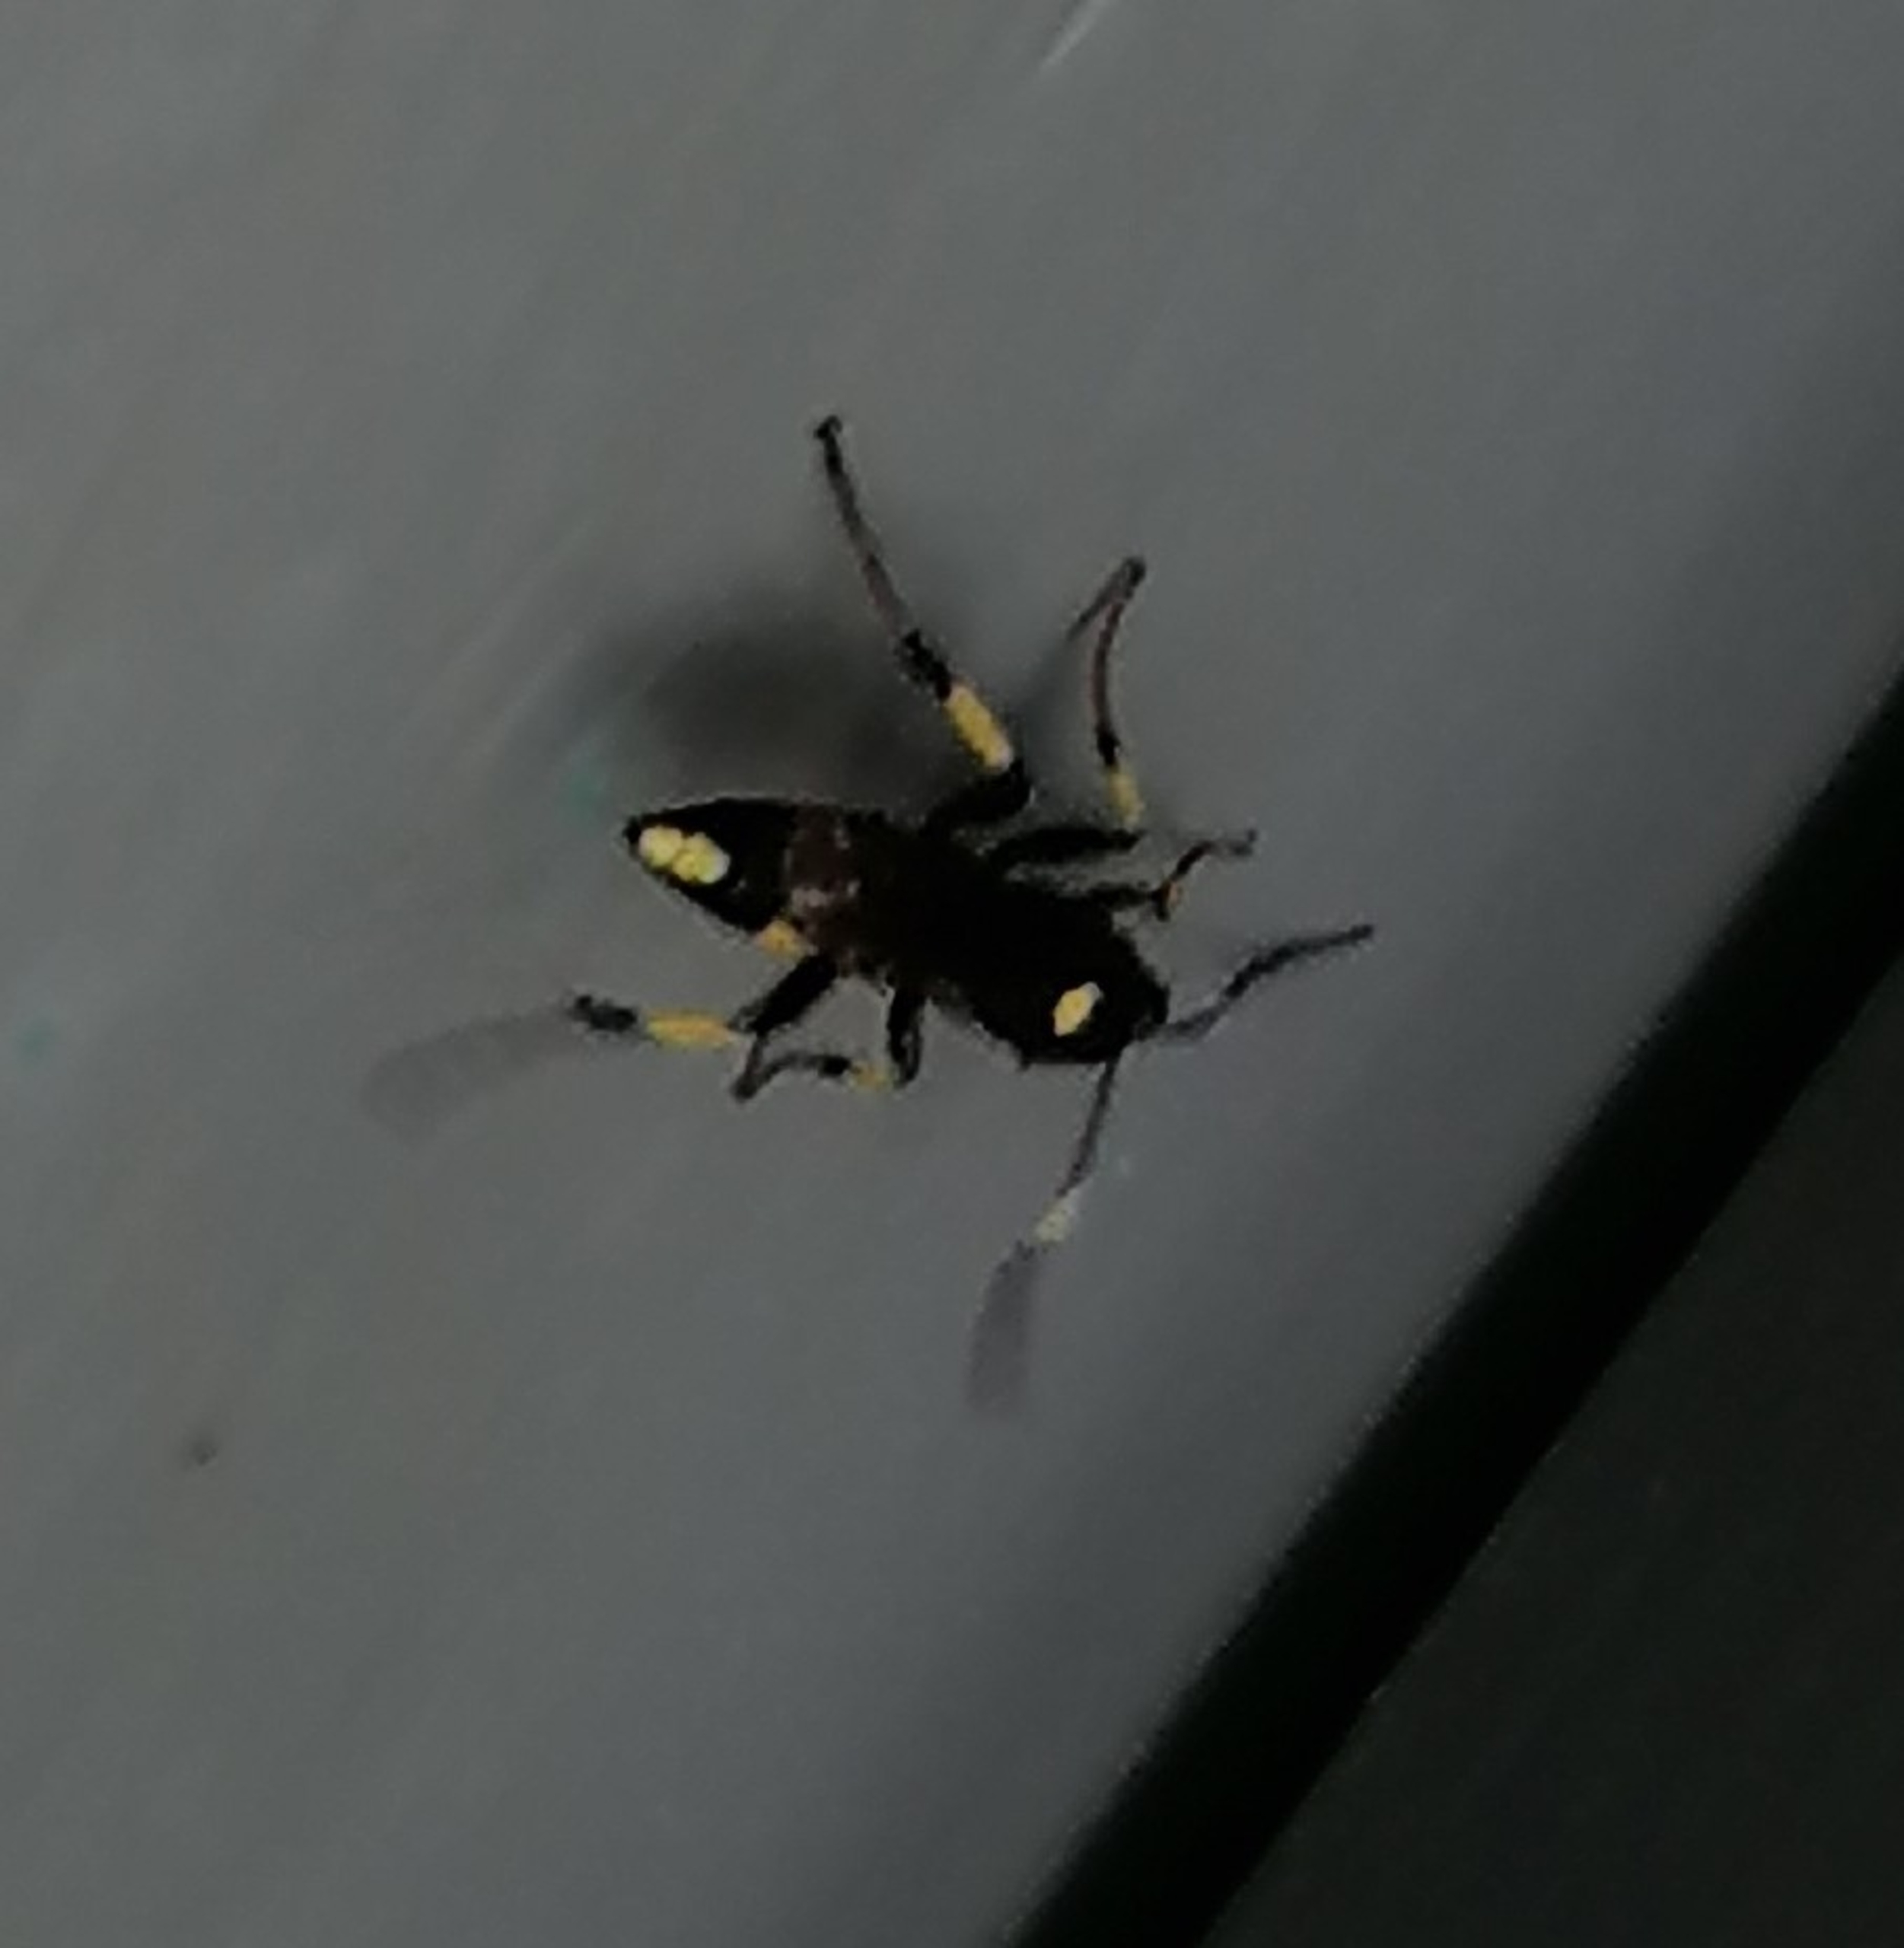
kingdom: Animalia
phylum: Arthropoda
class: Insecta
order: Hymenoptera
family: Ichneumonidae
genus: Ichneumon
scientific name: Ichneumon stramentor
